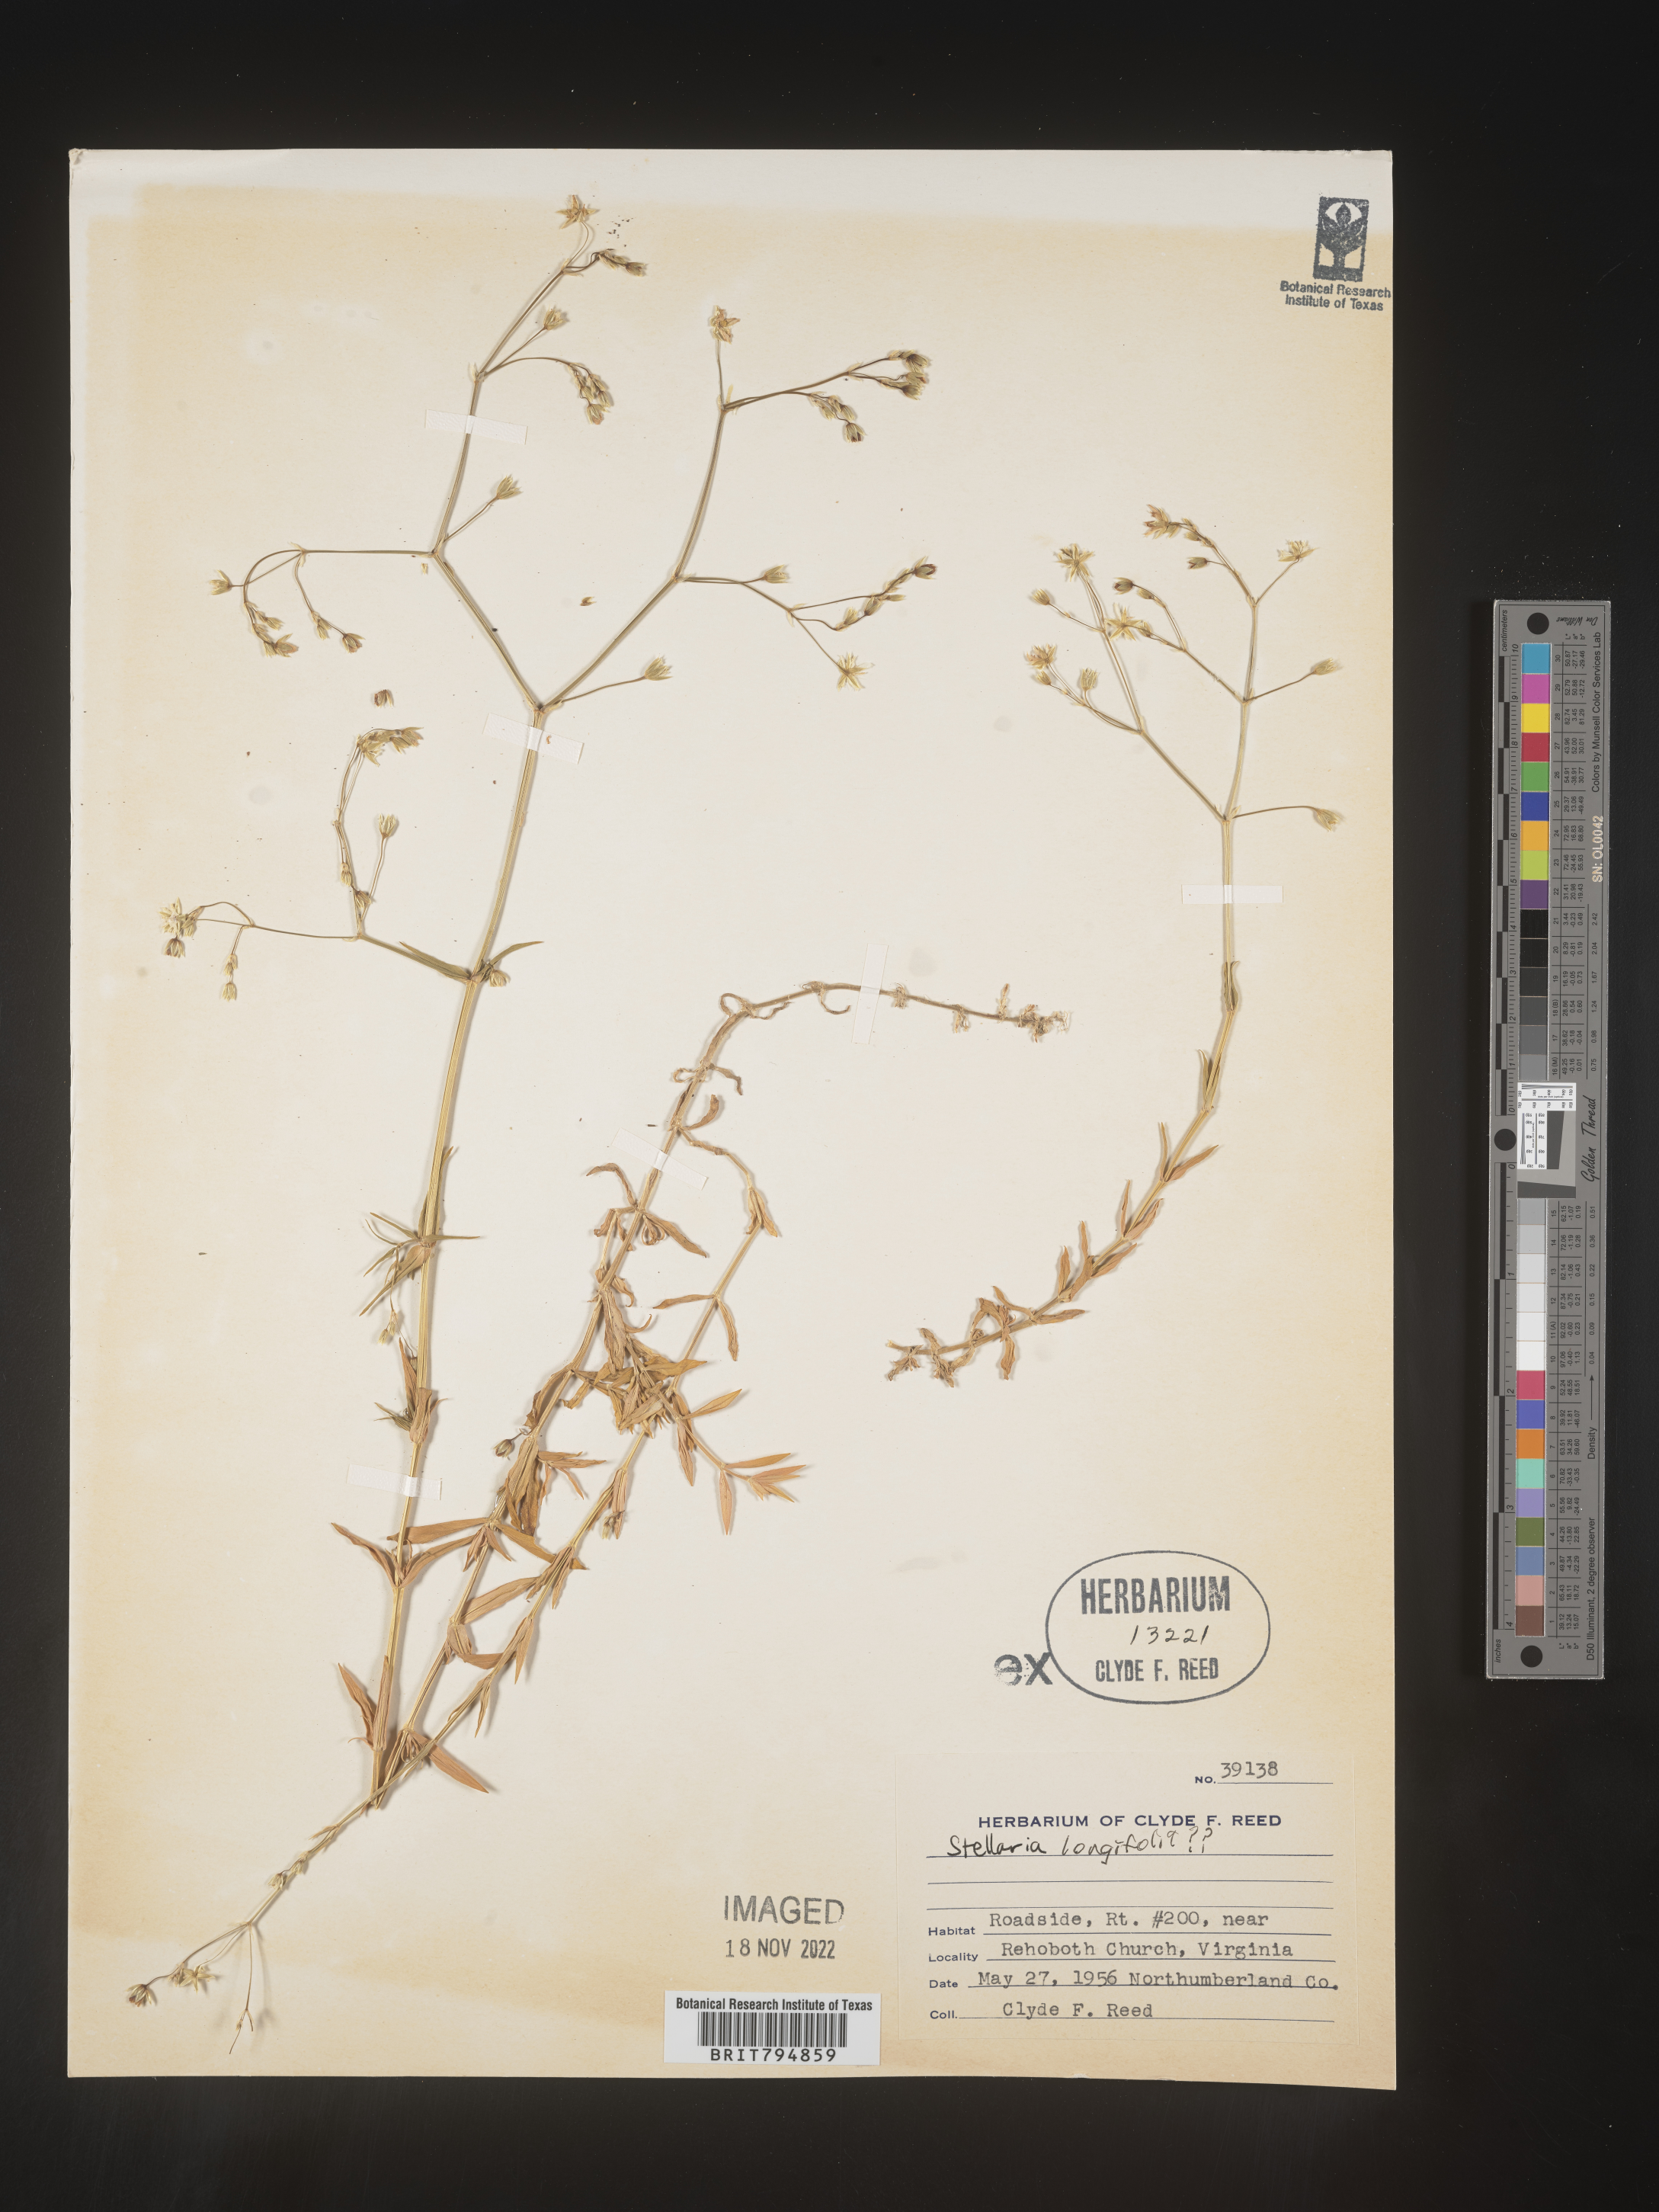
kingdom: Plantae
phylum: Tracheophyta
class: Magnoliopsida
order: Caryophyllales
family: Caryophyllaceae
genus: Stellaria
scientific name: Stellaria longifolia
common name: Long-leaved chickweed
